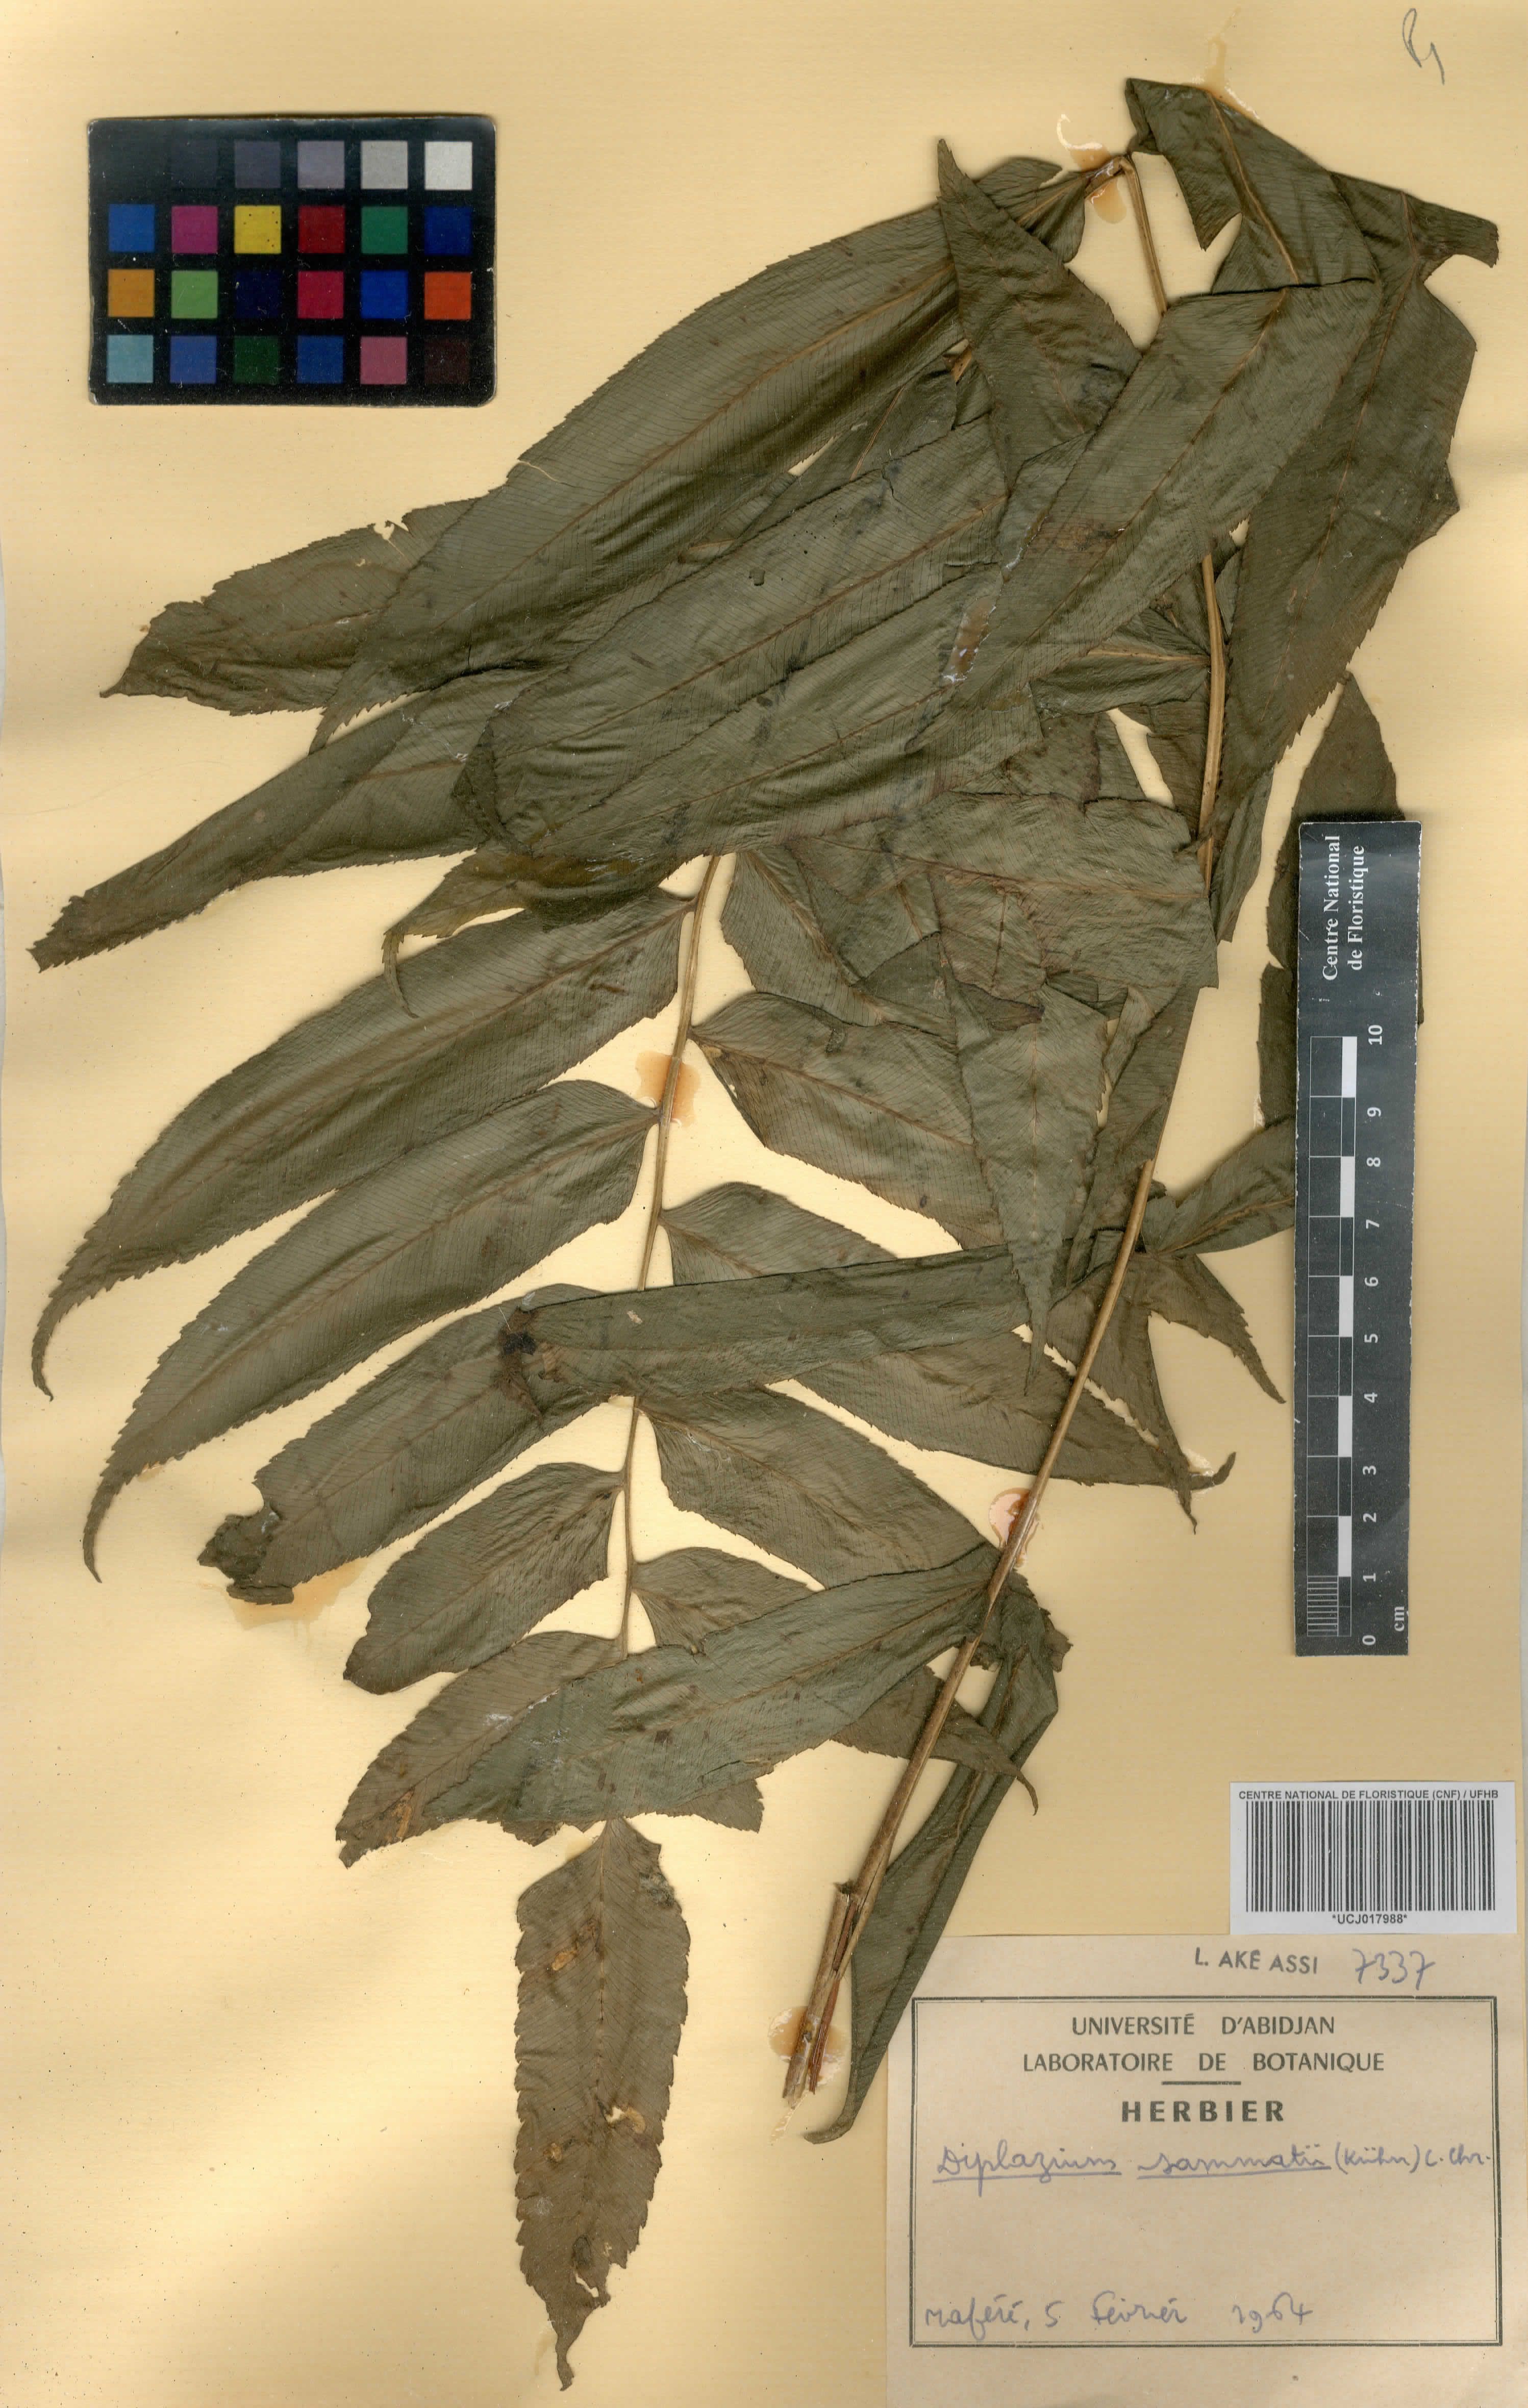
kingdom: Plantae
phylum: Tracheophyta
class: Polypodiopsida
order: Polypodiales
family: Athyriaceae
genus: Diplazium
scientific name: Diplazium sammatii
